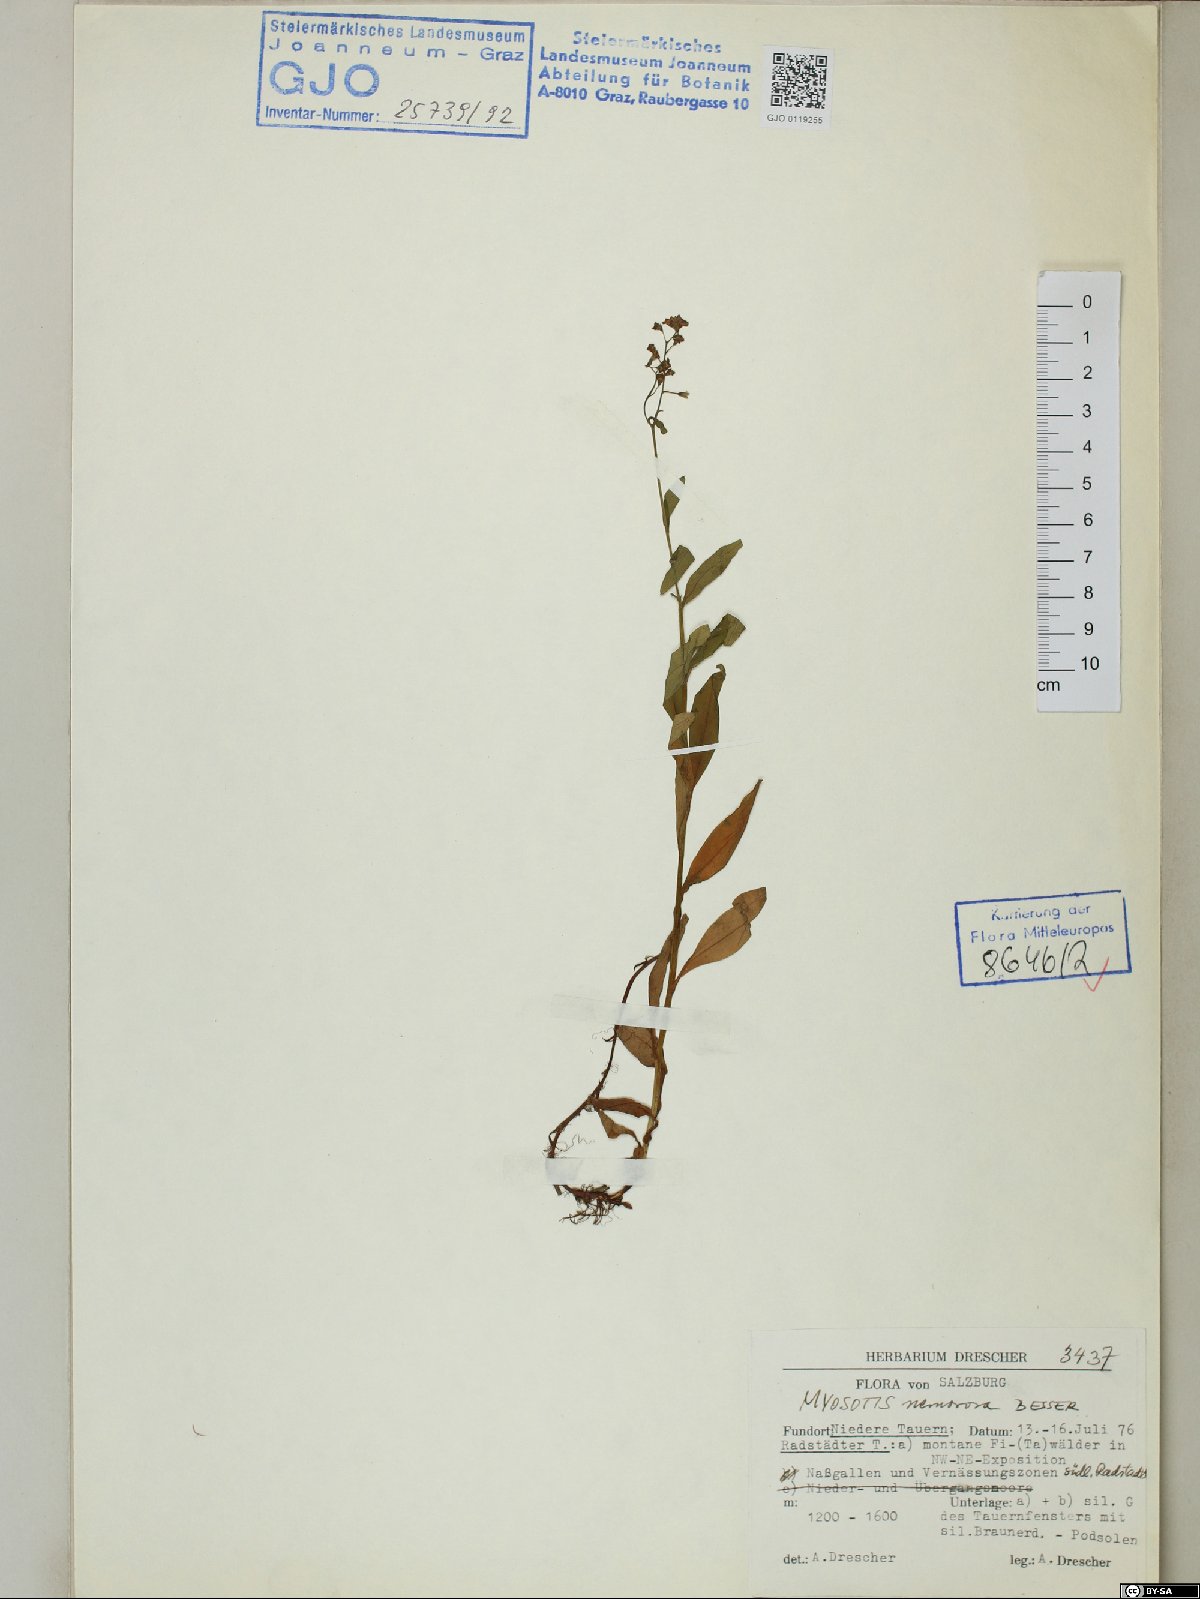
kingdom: Plantae
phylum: Tracheophyta
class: Magnoliopsida
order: Boraginales
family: Boraginaceae
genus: Myosotis
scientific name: Myosotis nemorosa
